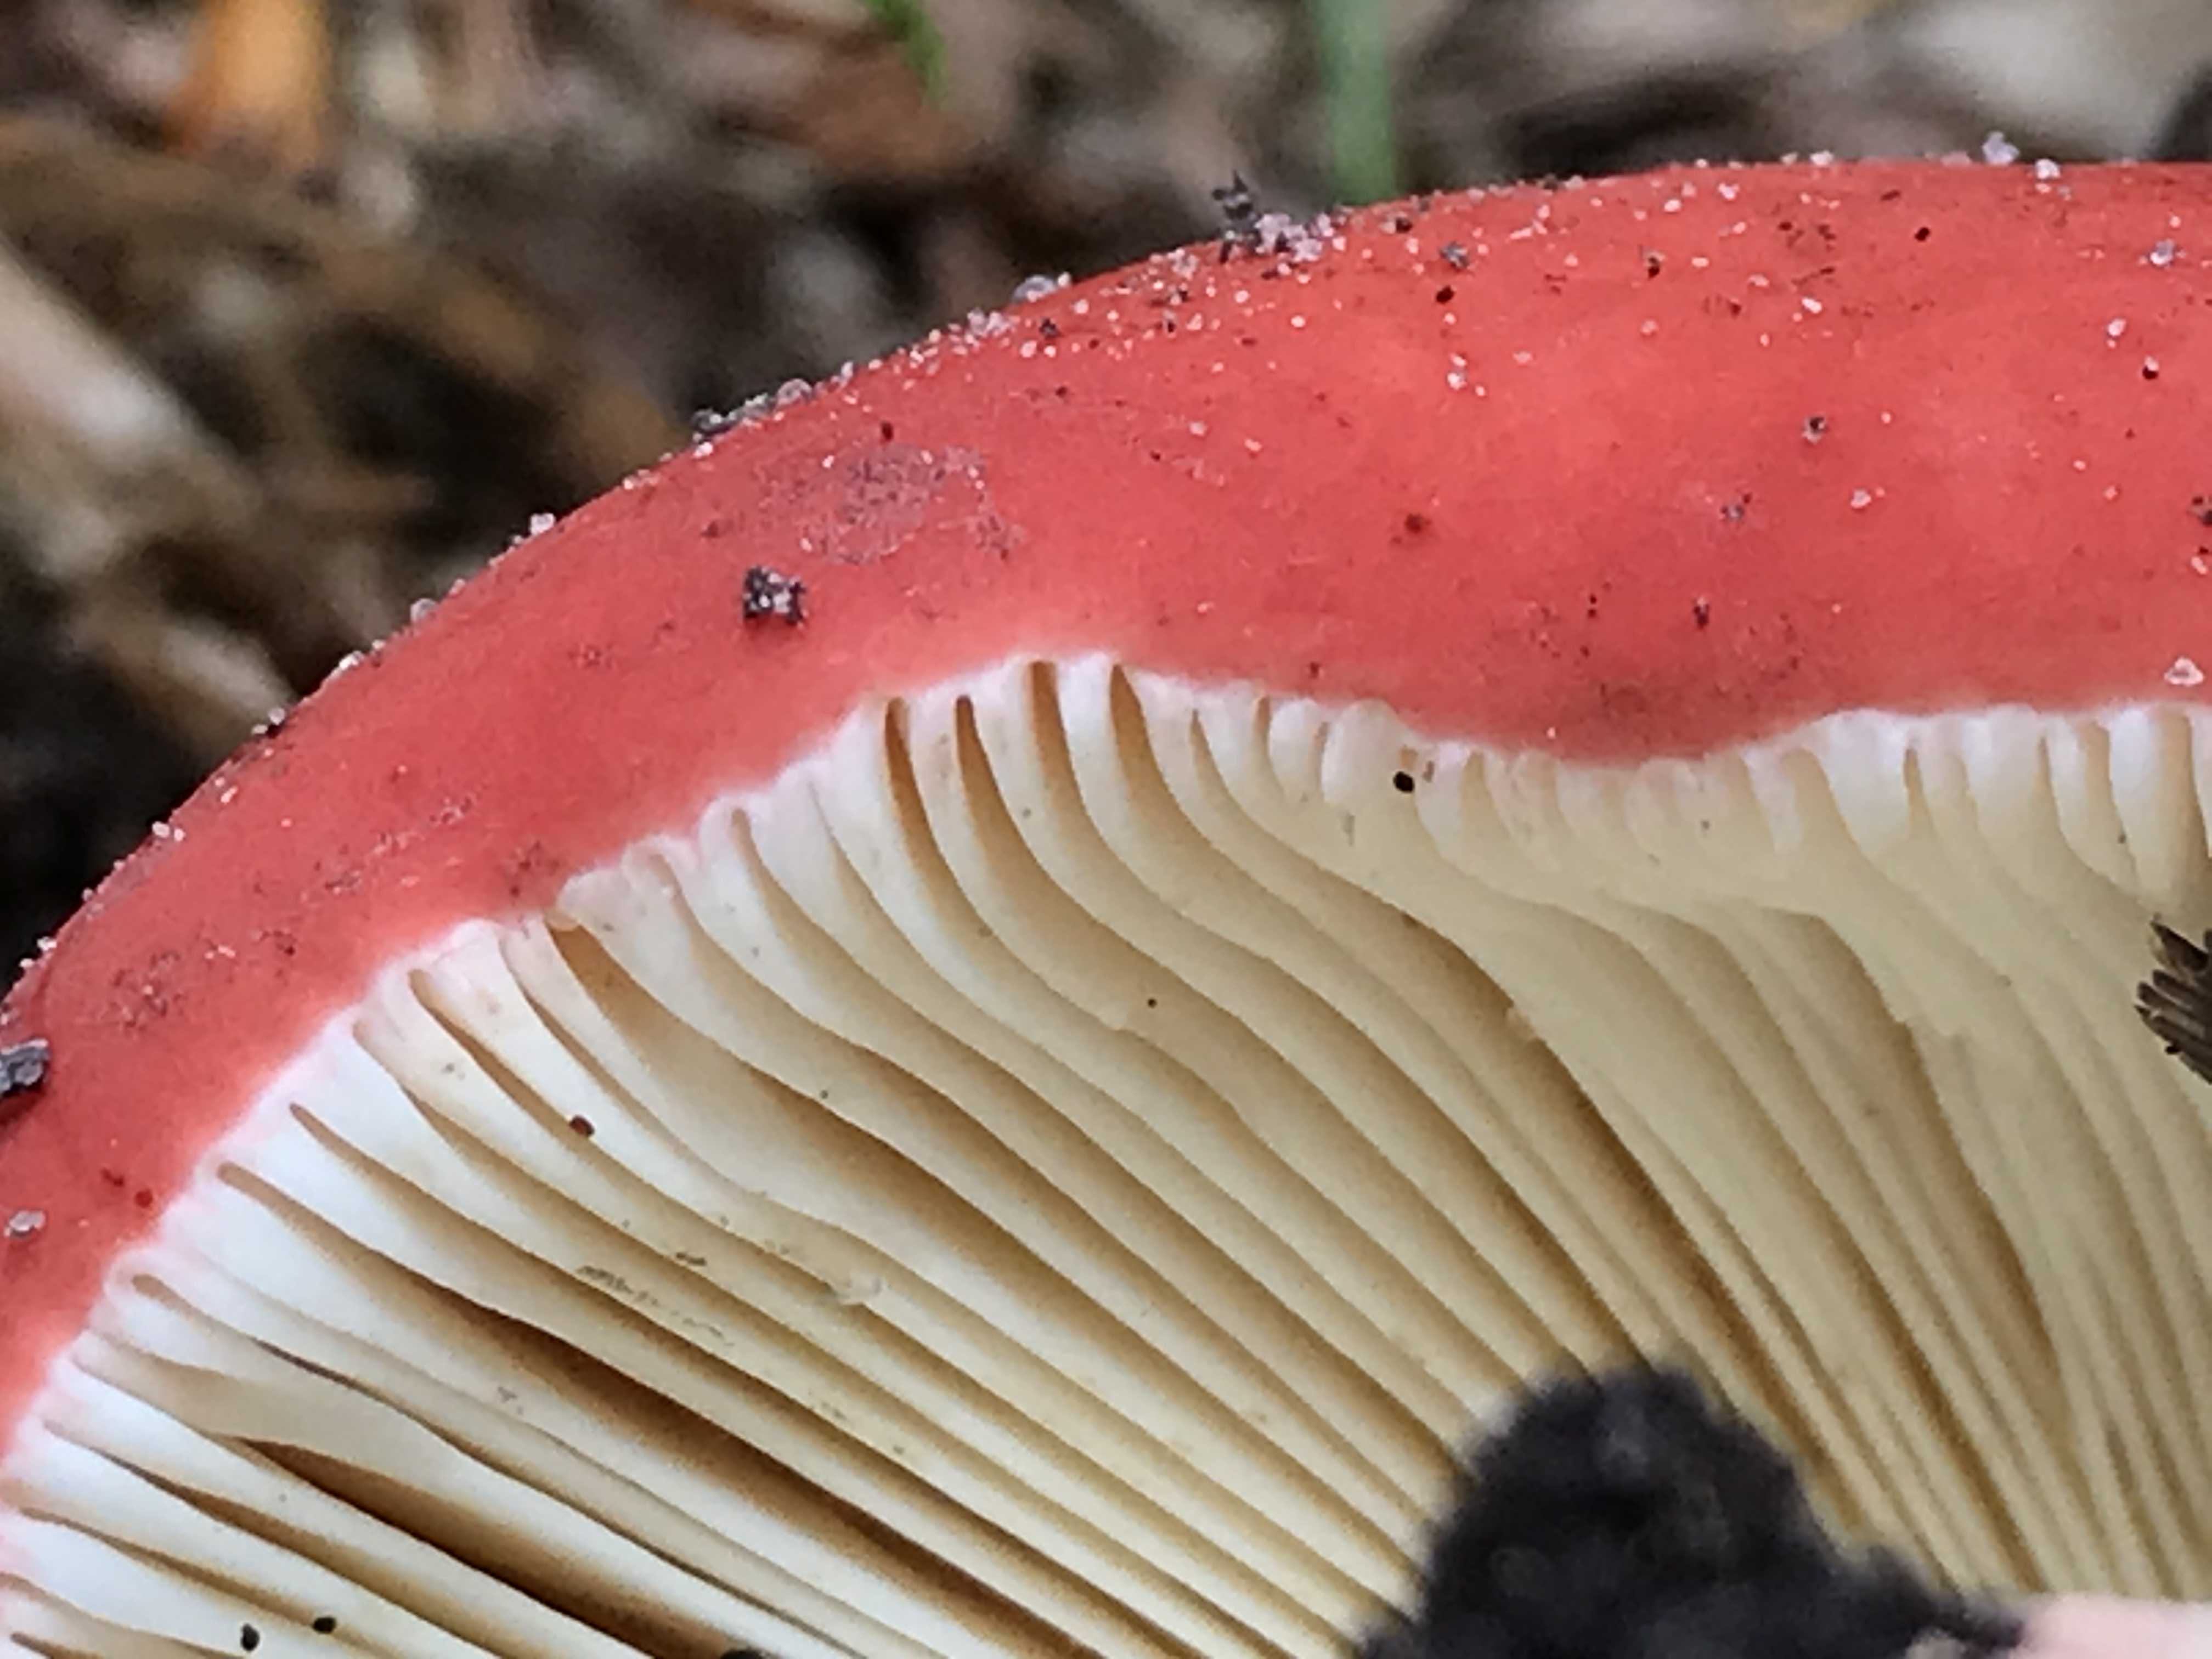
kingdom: Fungi
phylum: Basidiomycota
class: Agaricomycetes
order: Russulales
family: Russulaceae
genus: Russula
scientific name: Russula rosea
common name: fastkødet skørhat
